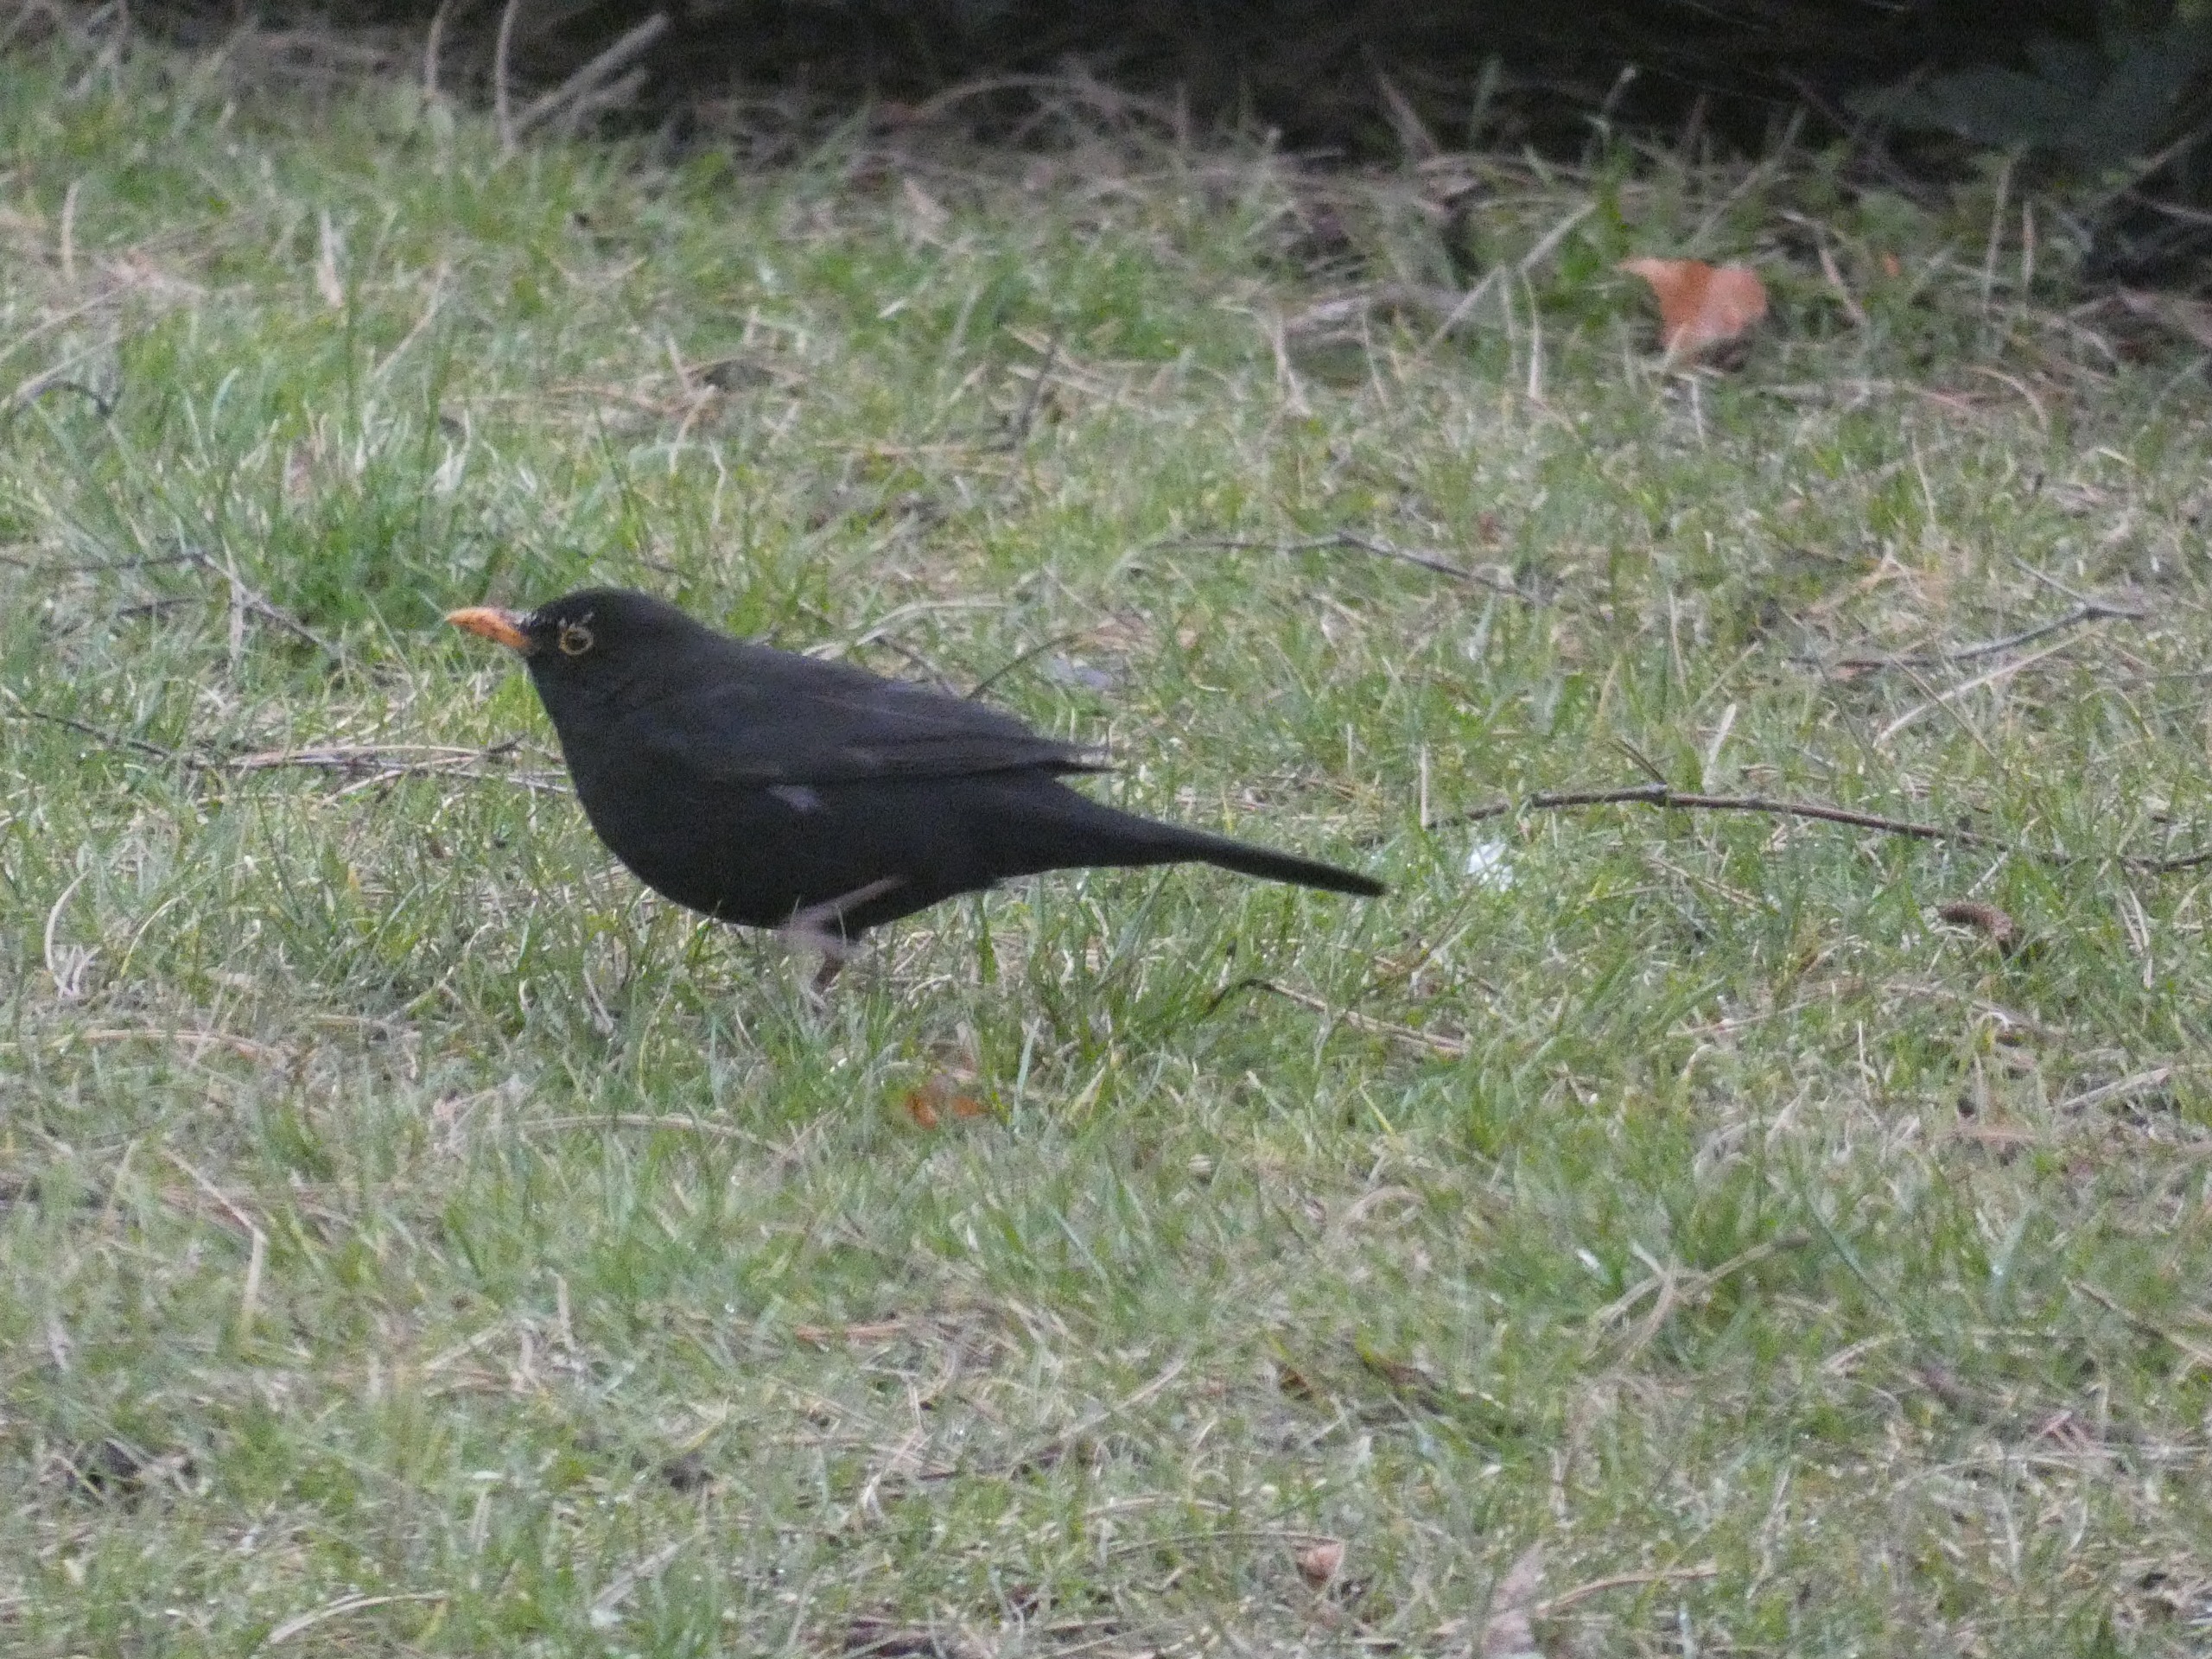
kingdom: Animalia
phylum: Chordata
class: Aves
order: Passeriformes
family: Turdidae
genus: Turdus
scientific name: Turdus merula
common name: Solsort
